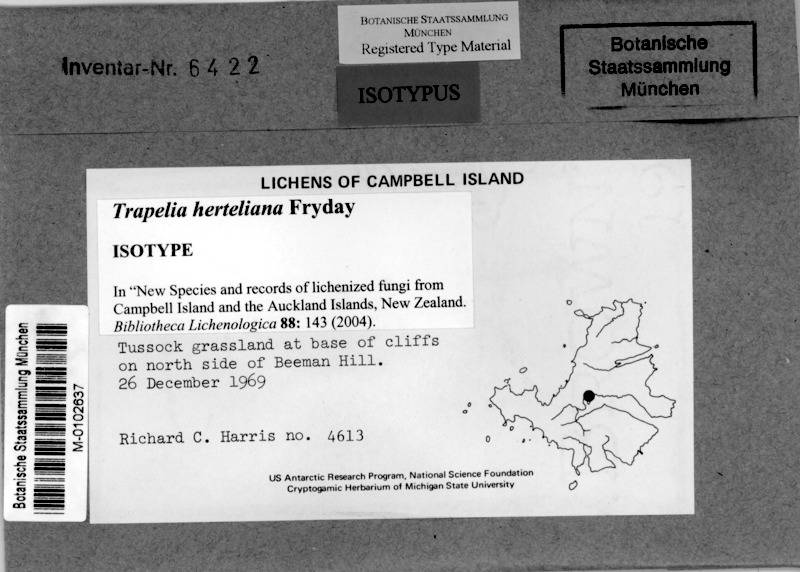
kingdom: Fungi
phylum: Ascomycota
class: Lecanoromycetes
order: Baeomycetales
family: Trapeliaceae
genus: Trapelia
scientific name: Trapelia herteliana
